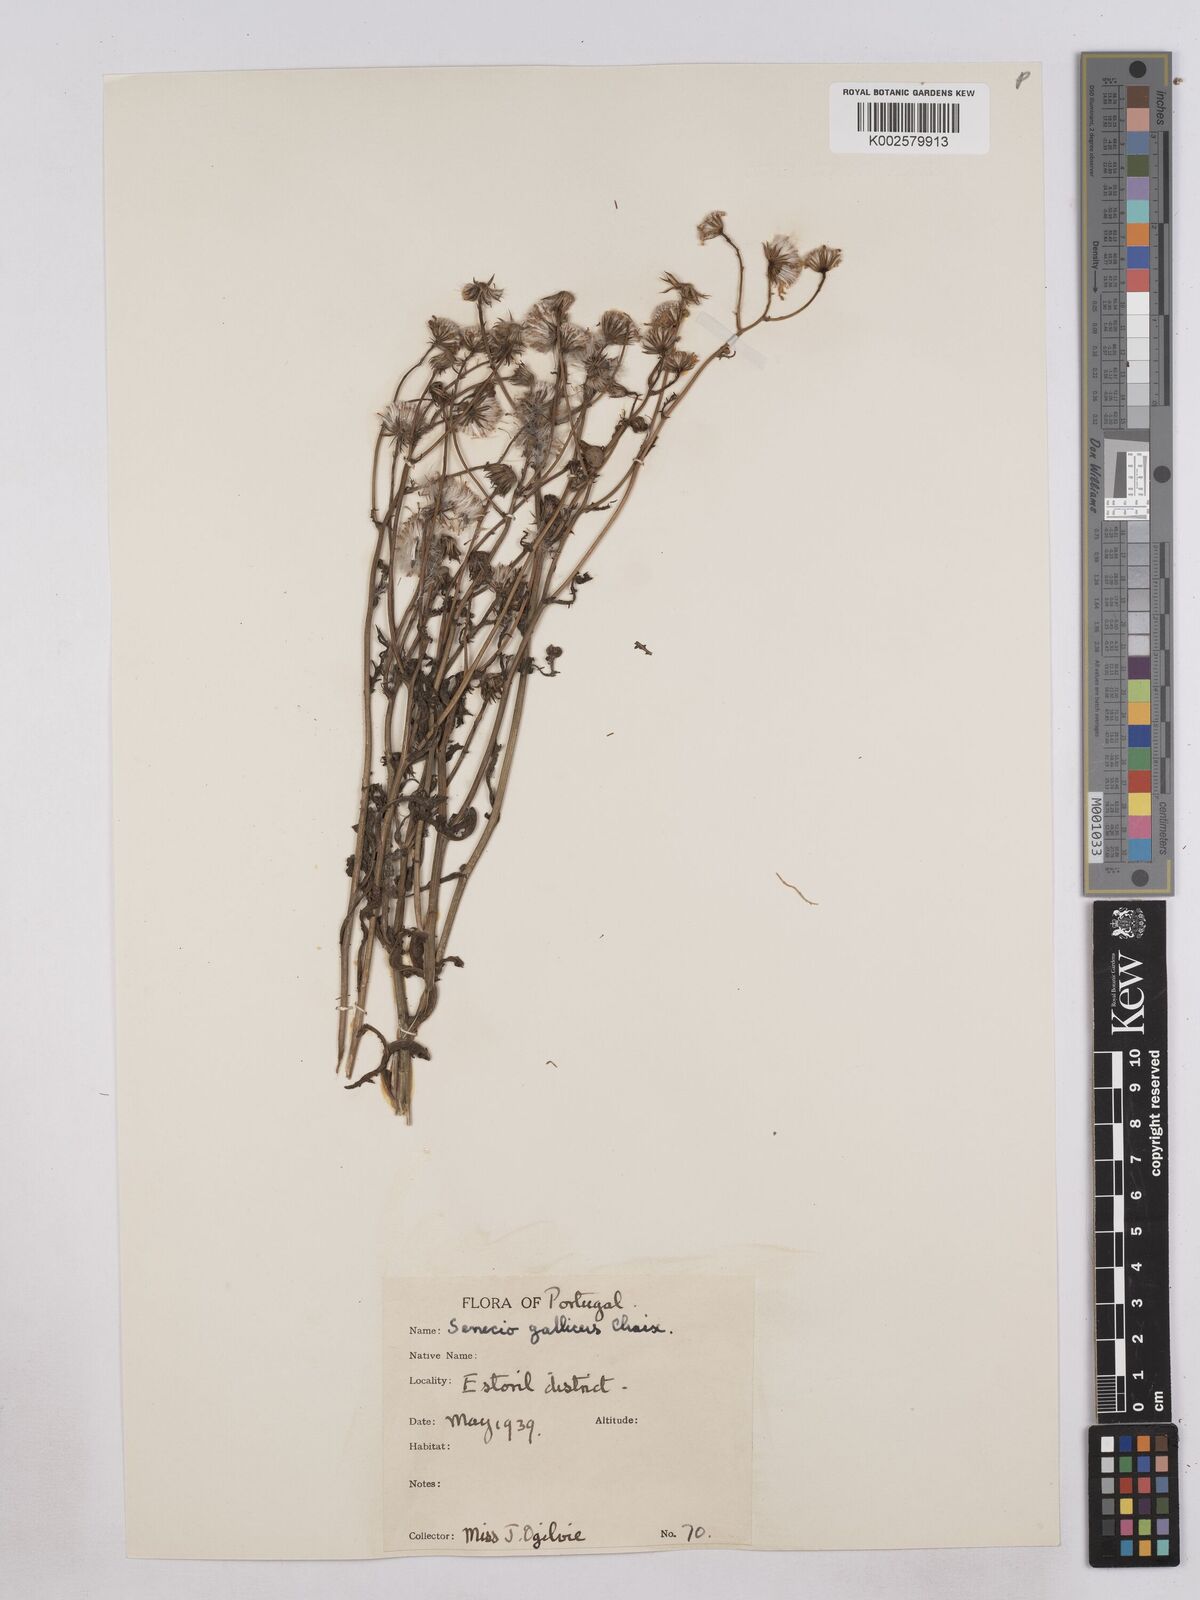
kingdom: Plantae
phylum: Tracheophyta
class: Magnoliopsida
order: Asterales
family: Asteraceae
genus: Senecio
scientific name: Senecio gallicus
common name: French groundsel
